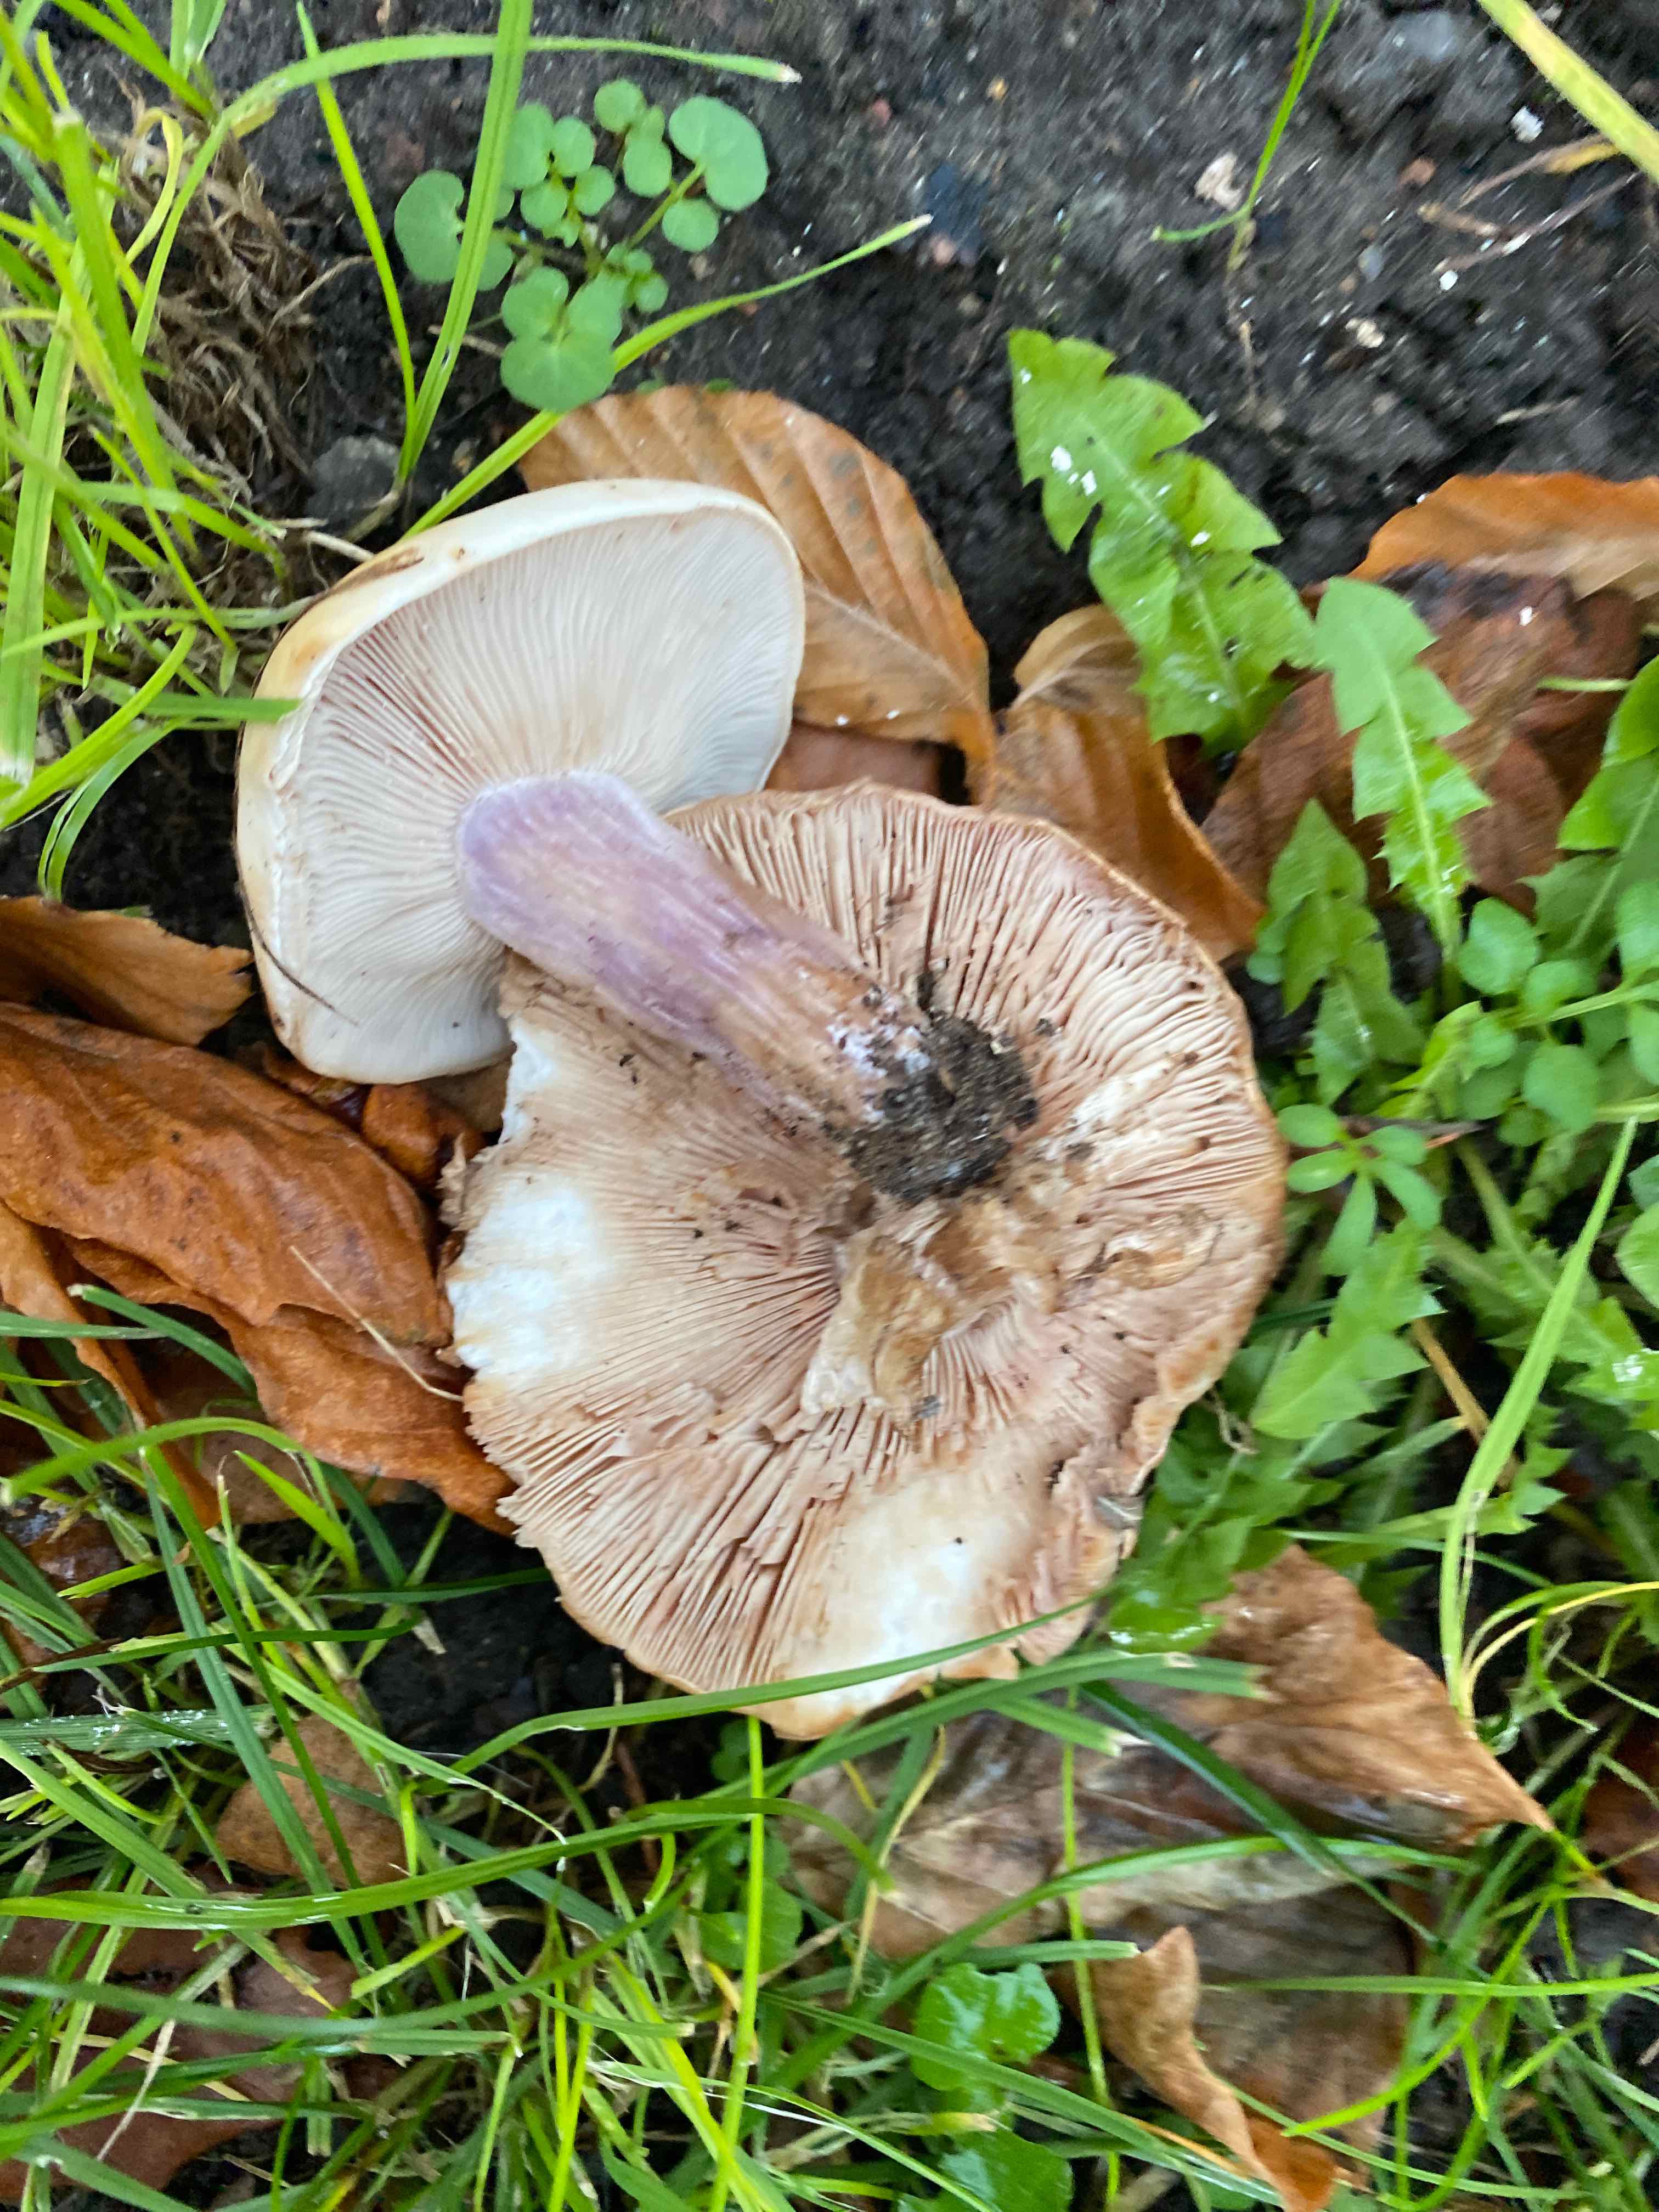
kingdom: Fungi
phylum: Basidiomycota
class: Agaricomycetes
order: Agaricales
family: Tricholomataceae
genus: Lepista
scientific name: Lepista personata
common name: bleg hekseringshat
